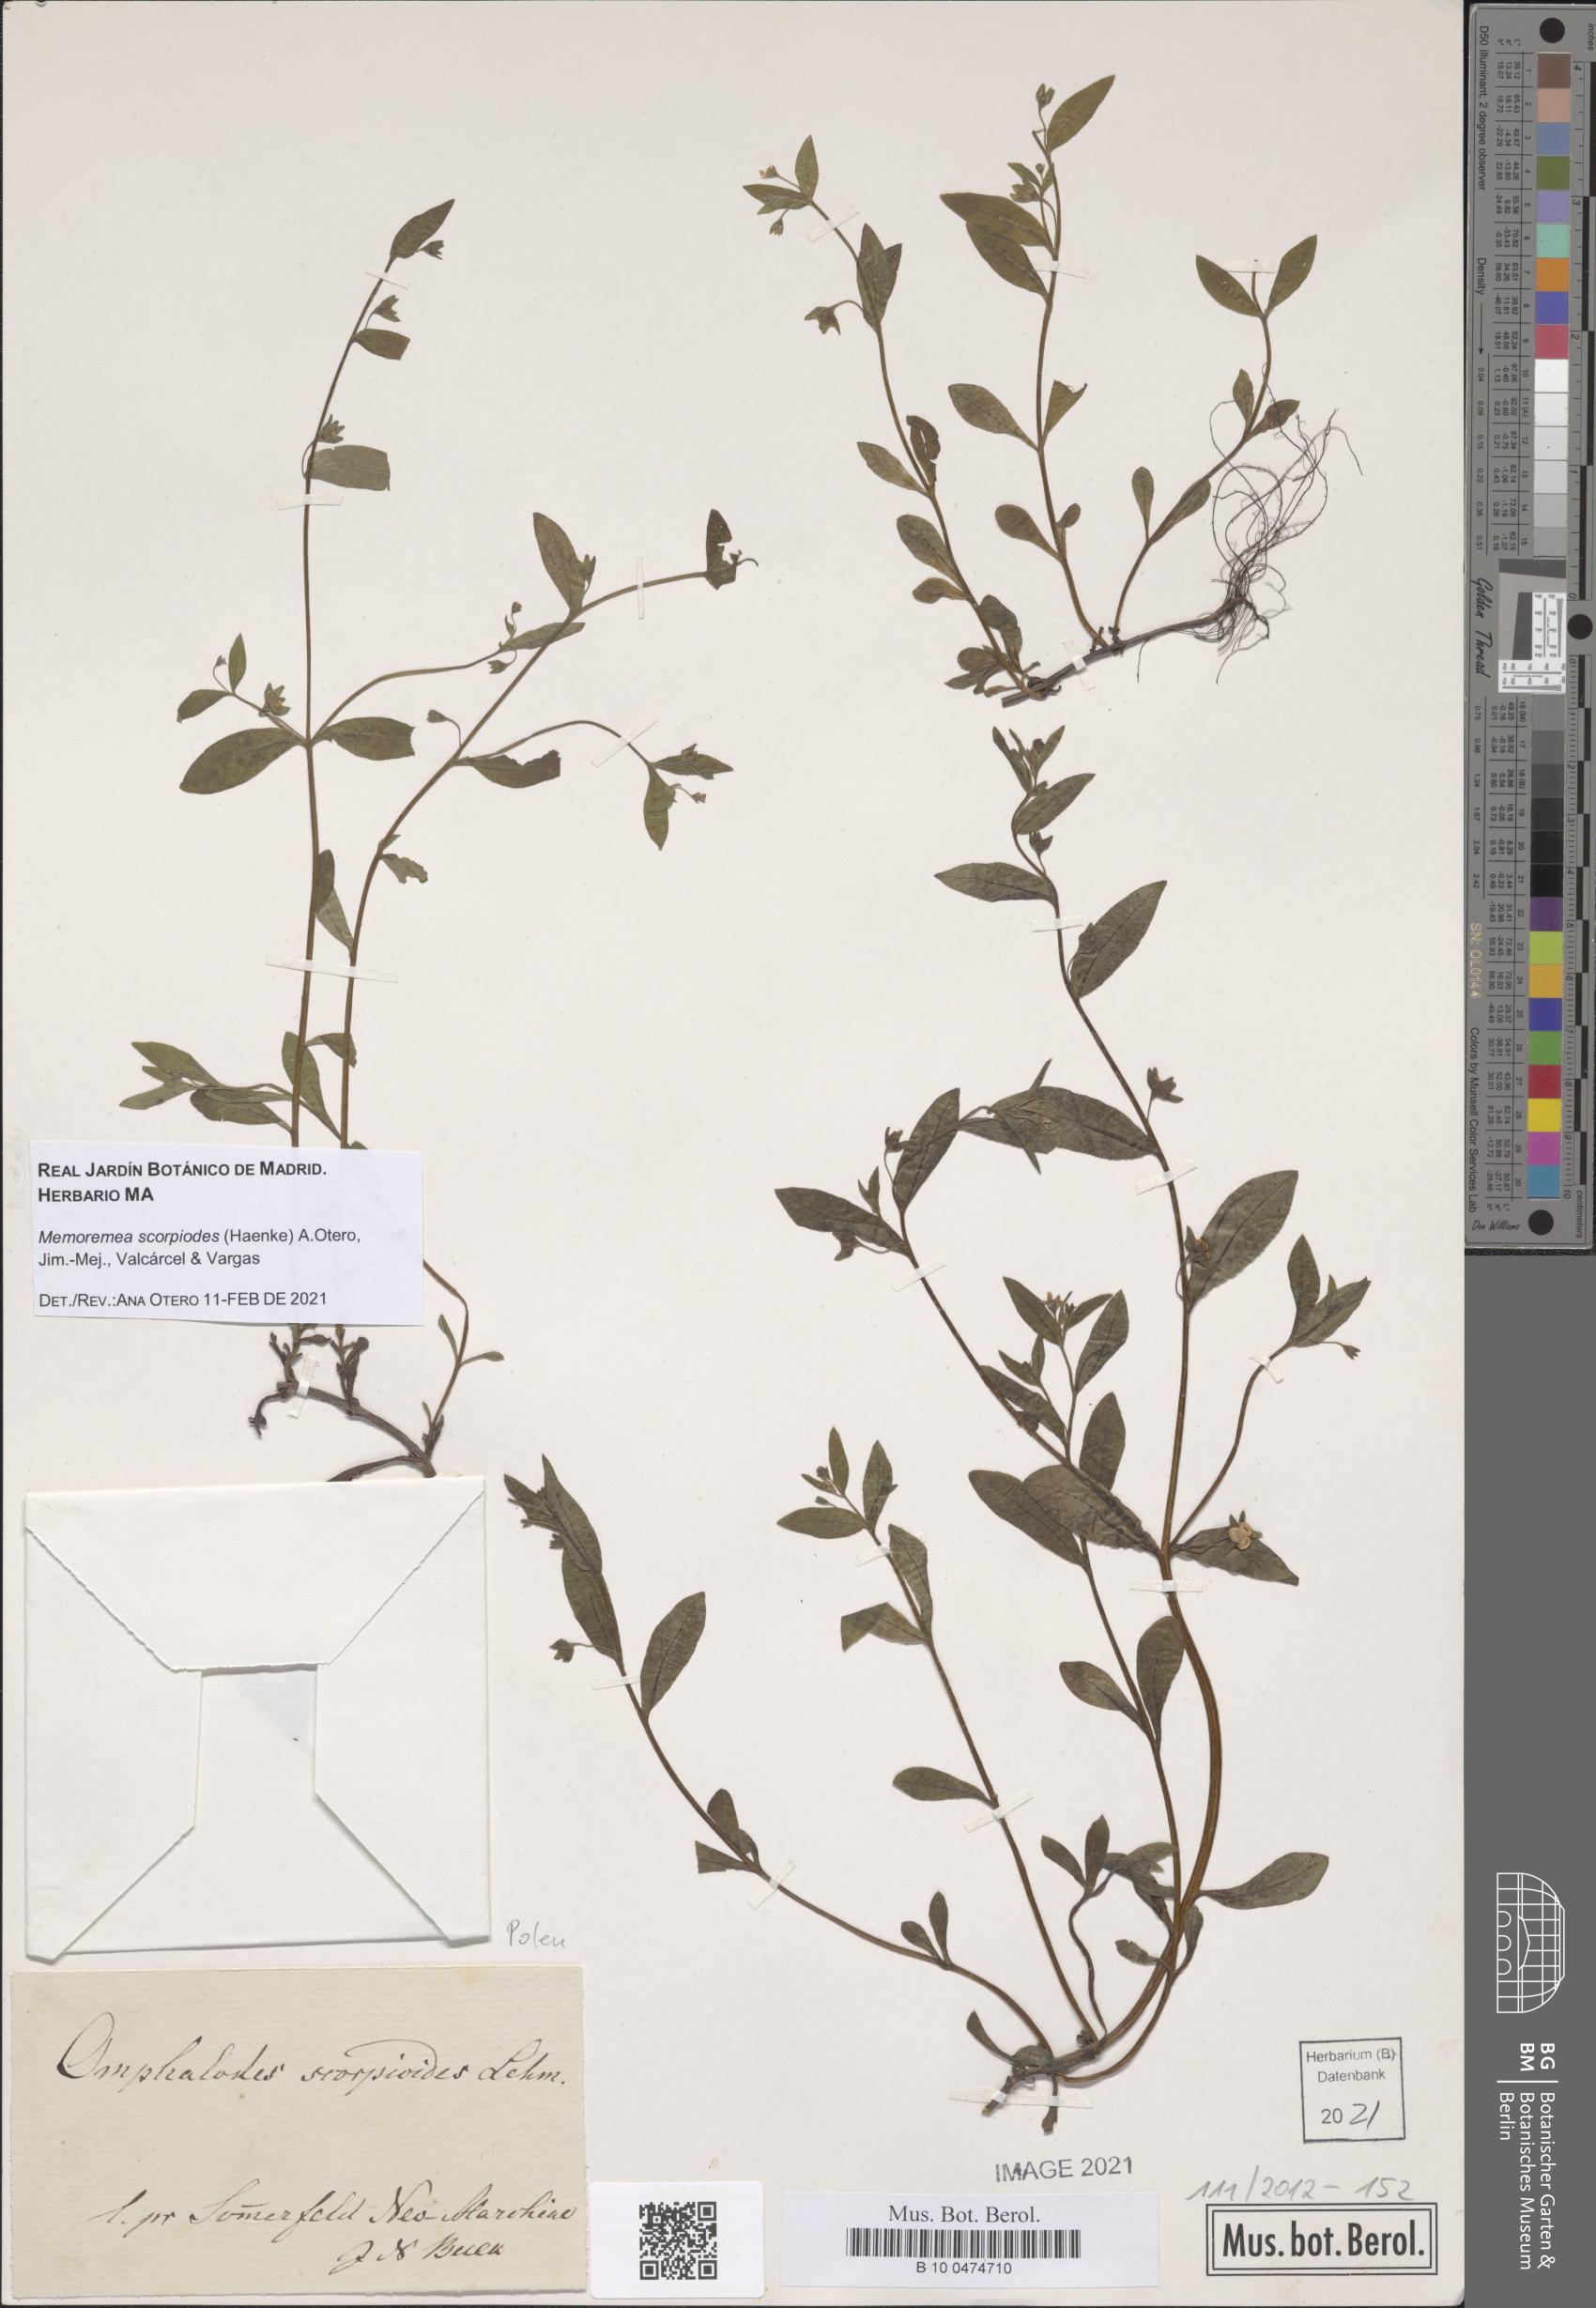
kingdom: Plantae
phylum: Tracheophyta
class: Magnoliopsida
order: Boraginales
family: Boraginaceae
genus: Memoremea
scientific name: Memoremea scorpioides
